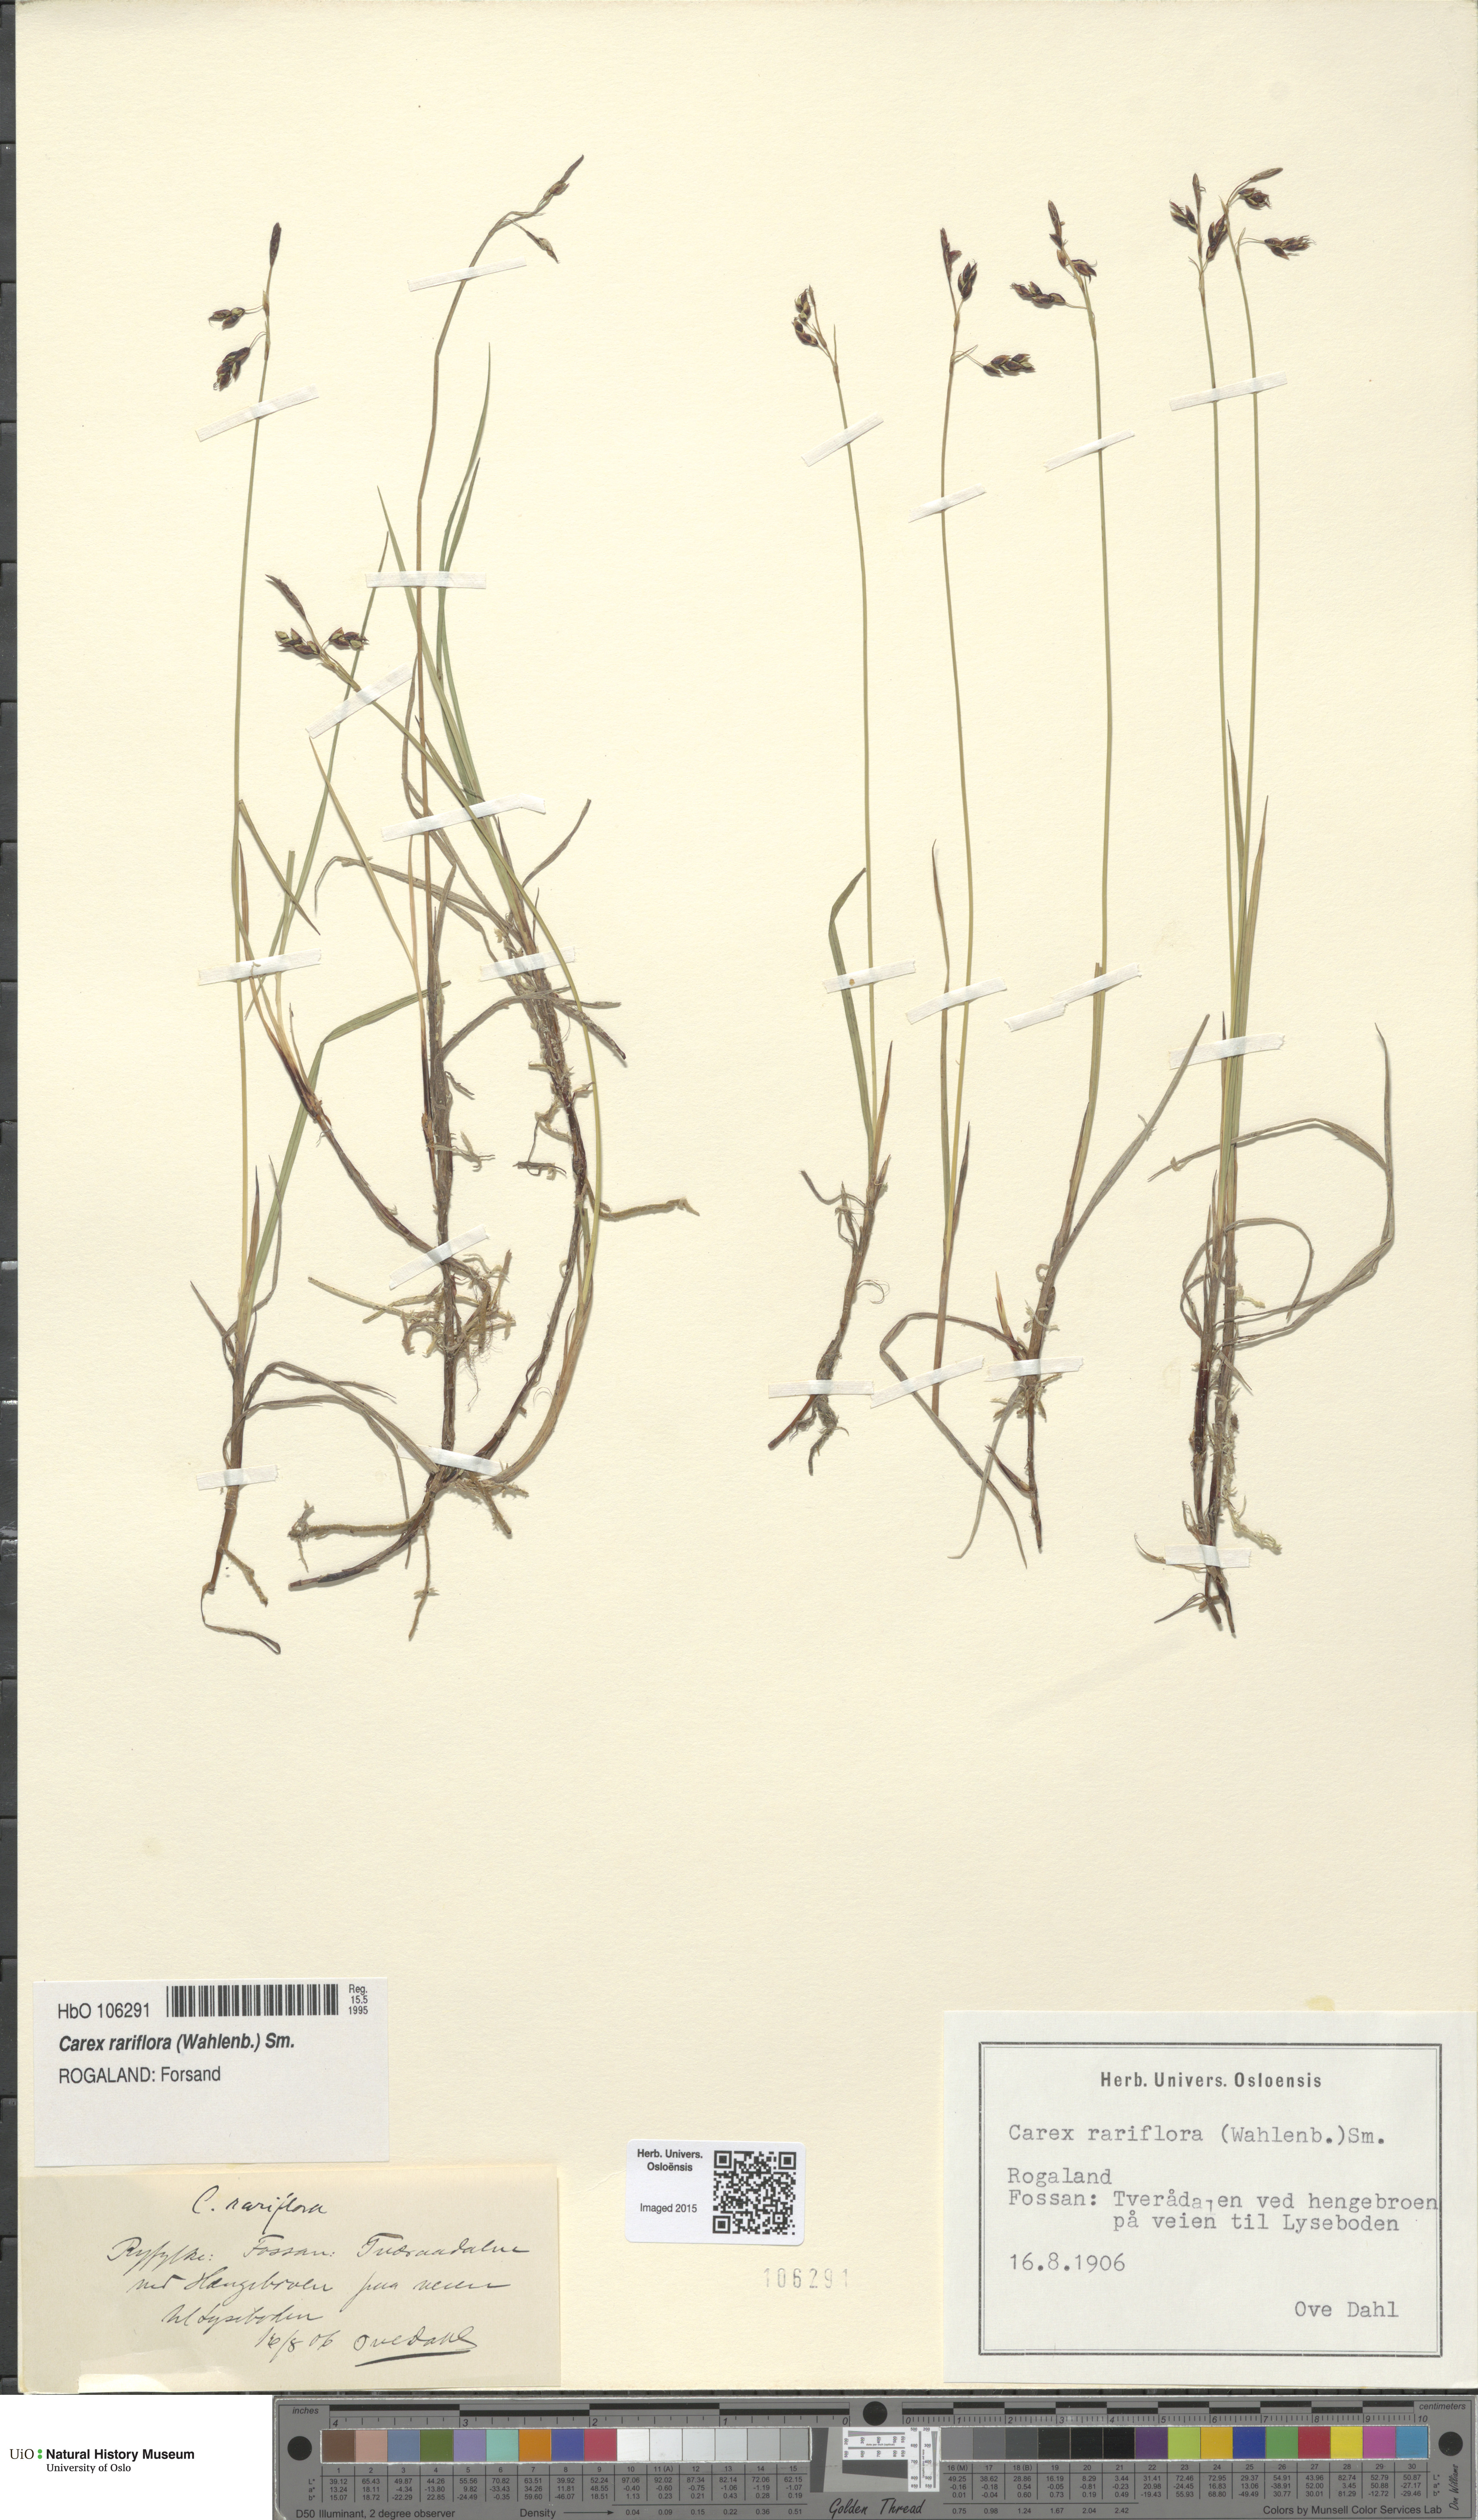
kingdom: Plantae
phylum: Tracheophyta
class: Liliopsida
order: Poales
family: Cyperaceae
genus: Carex
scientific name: Carex rariflora
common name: Loose-flowered alpine sedge
